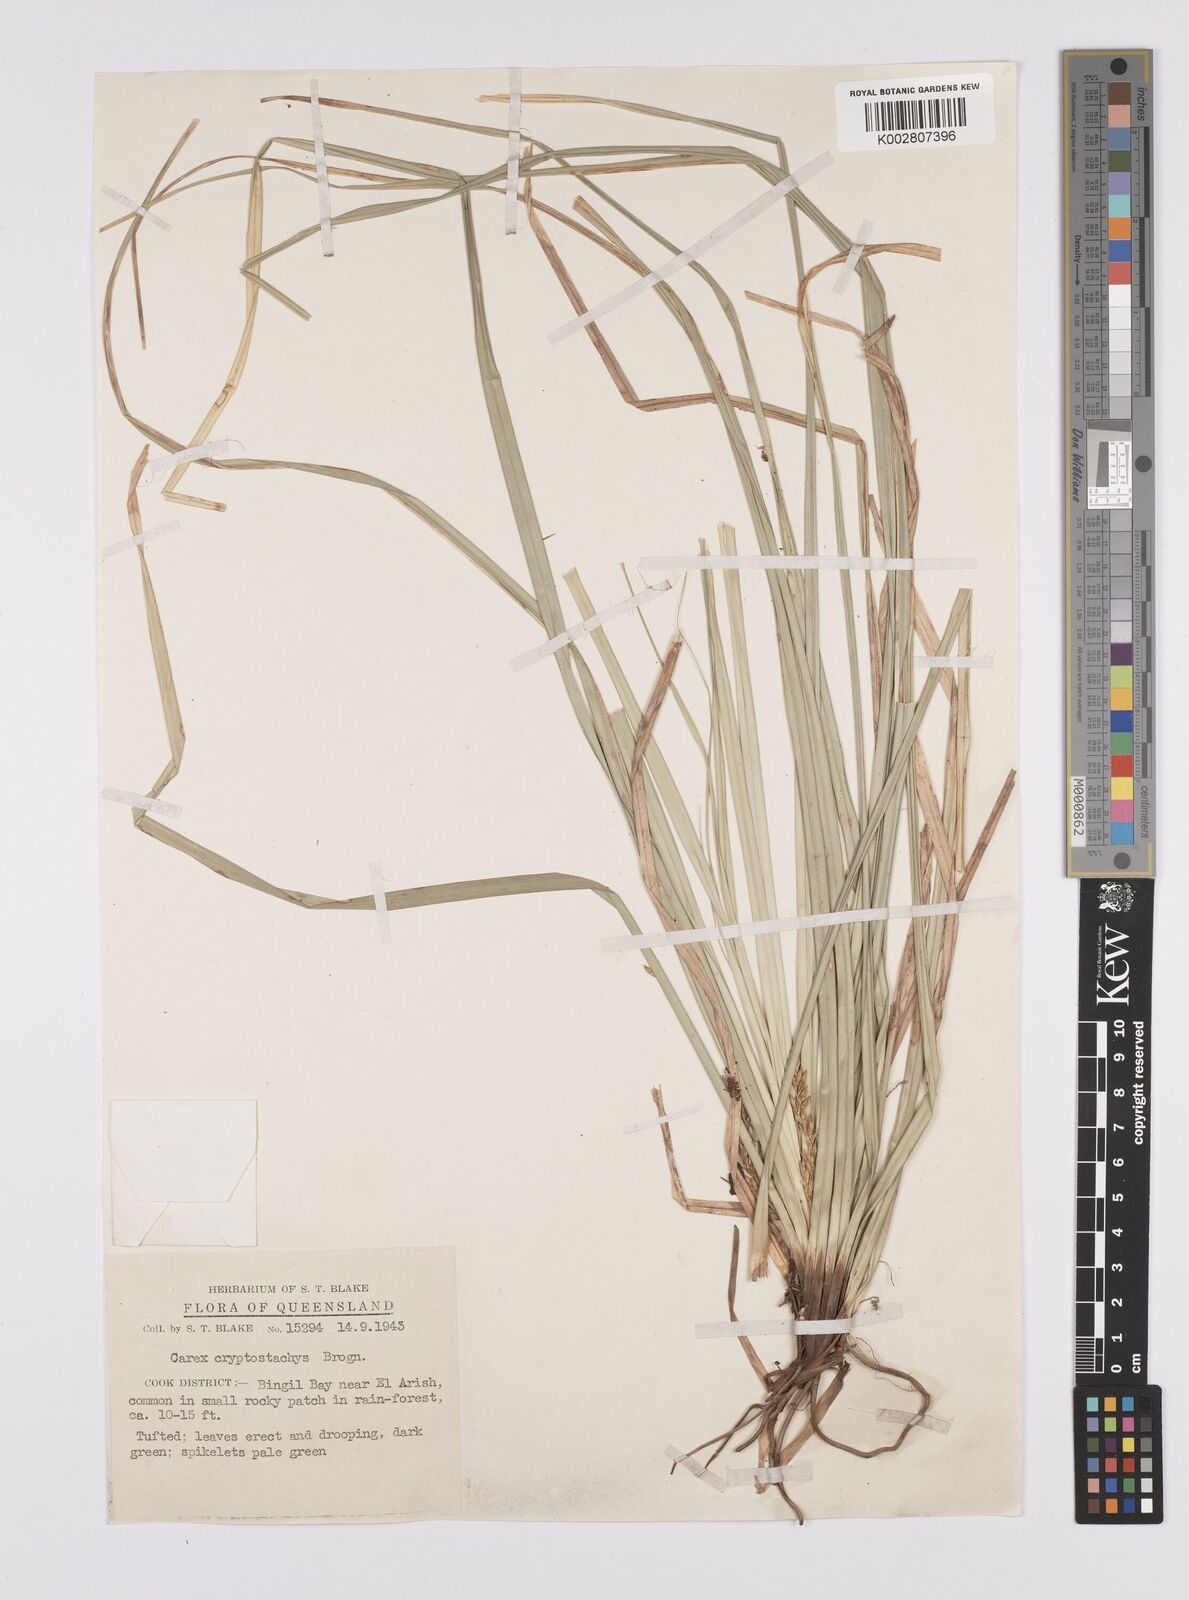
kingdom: Plantae
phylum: Tracheophyta
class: Liliopsida
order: Poales
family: Cyperaceae
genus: Carex
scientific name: Carex cryptostachys
